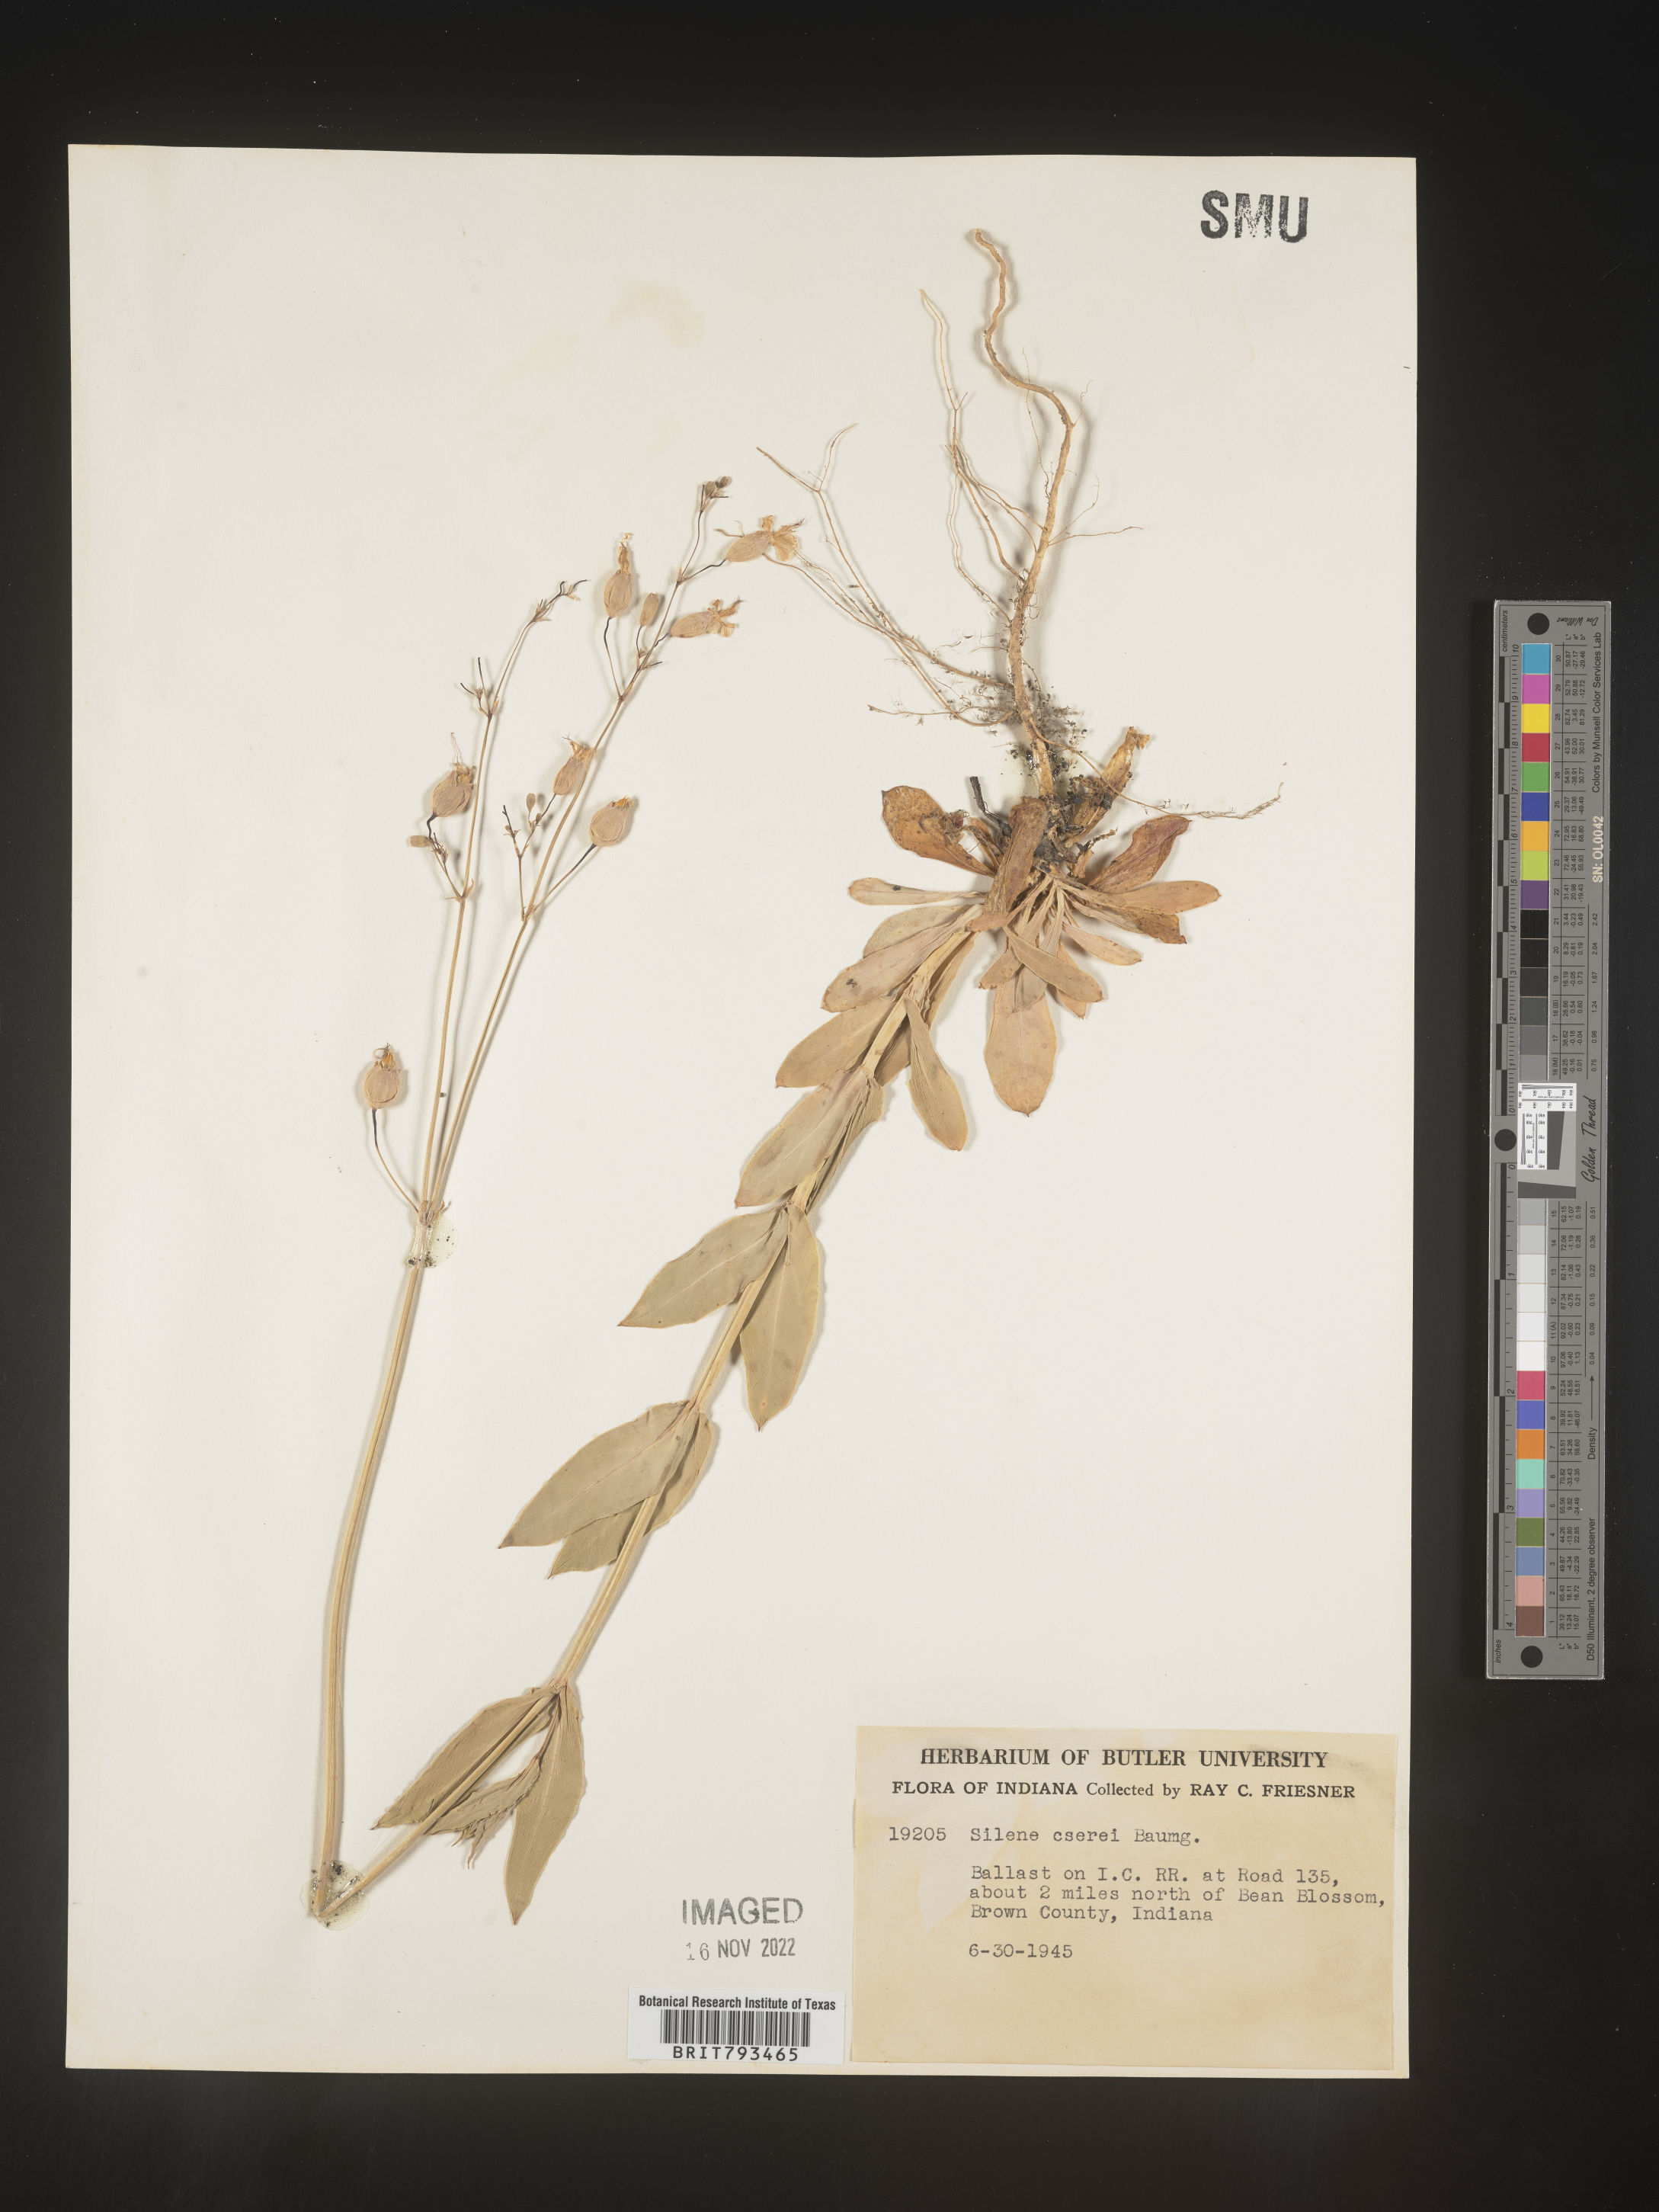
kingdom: Plantae
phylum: Tracheophyta
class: Magnoliopsida
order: Caryophyllales
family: Caryophyllaceae
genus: Silene
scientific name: Silene csereii
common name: Balkan catchfly
